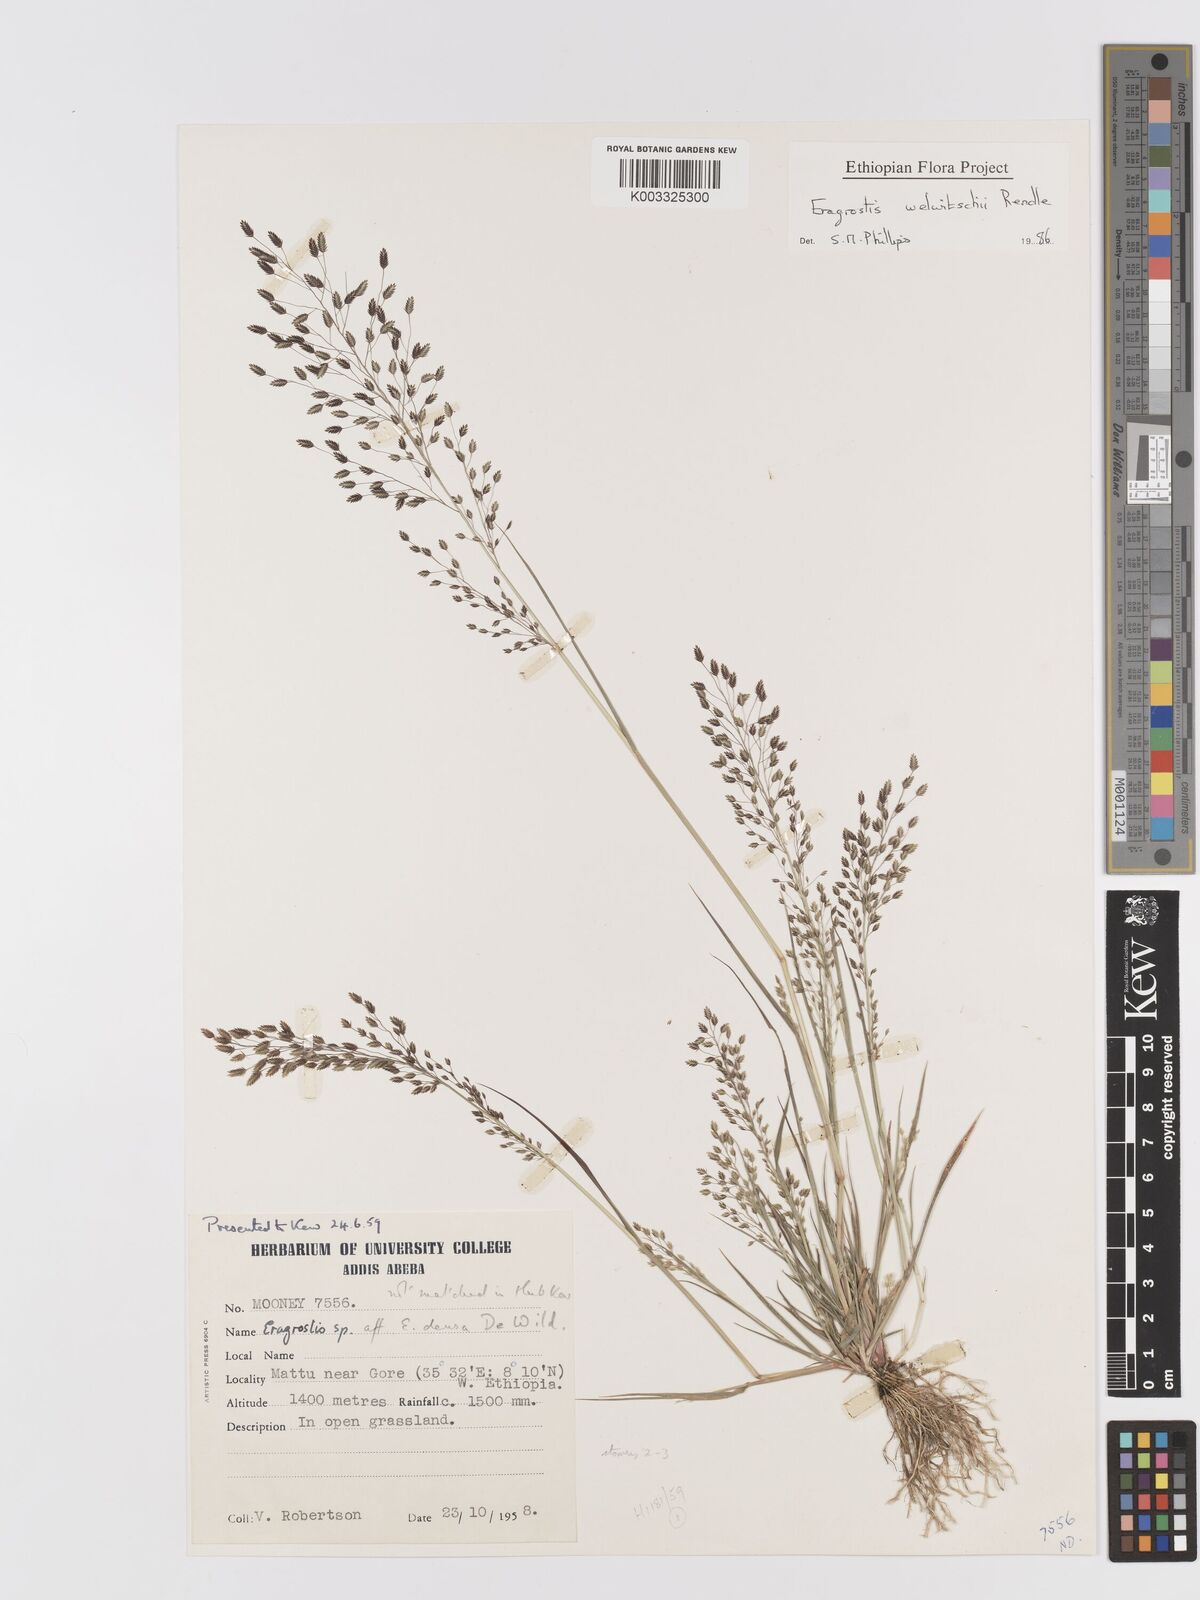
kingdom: Plantae
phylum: Tracheophyta
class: Liliopsida
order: Poales
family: Poaceae
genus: Eragrostis
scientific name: Eragrostis welwitschii
